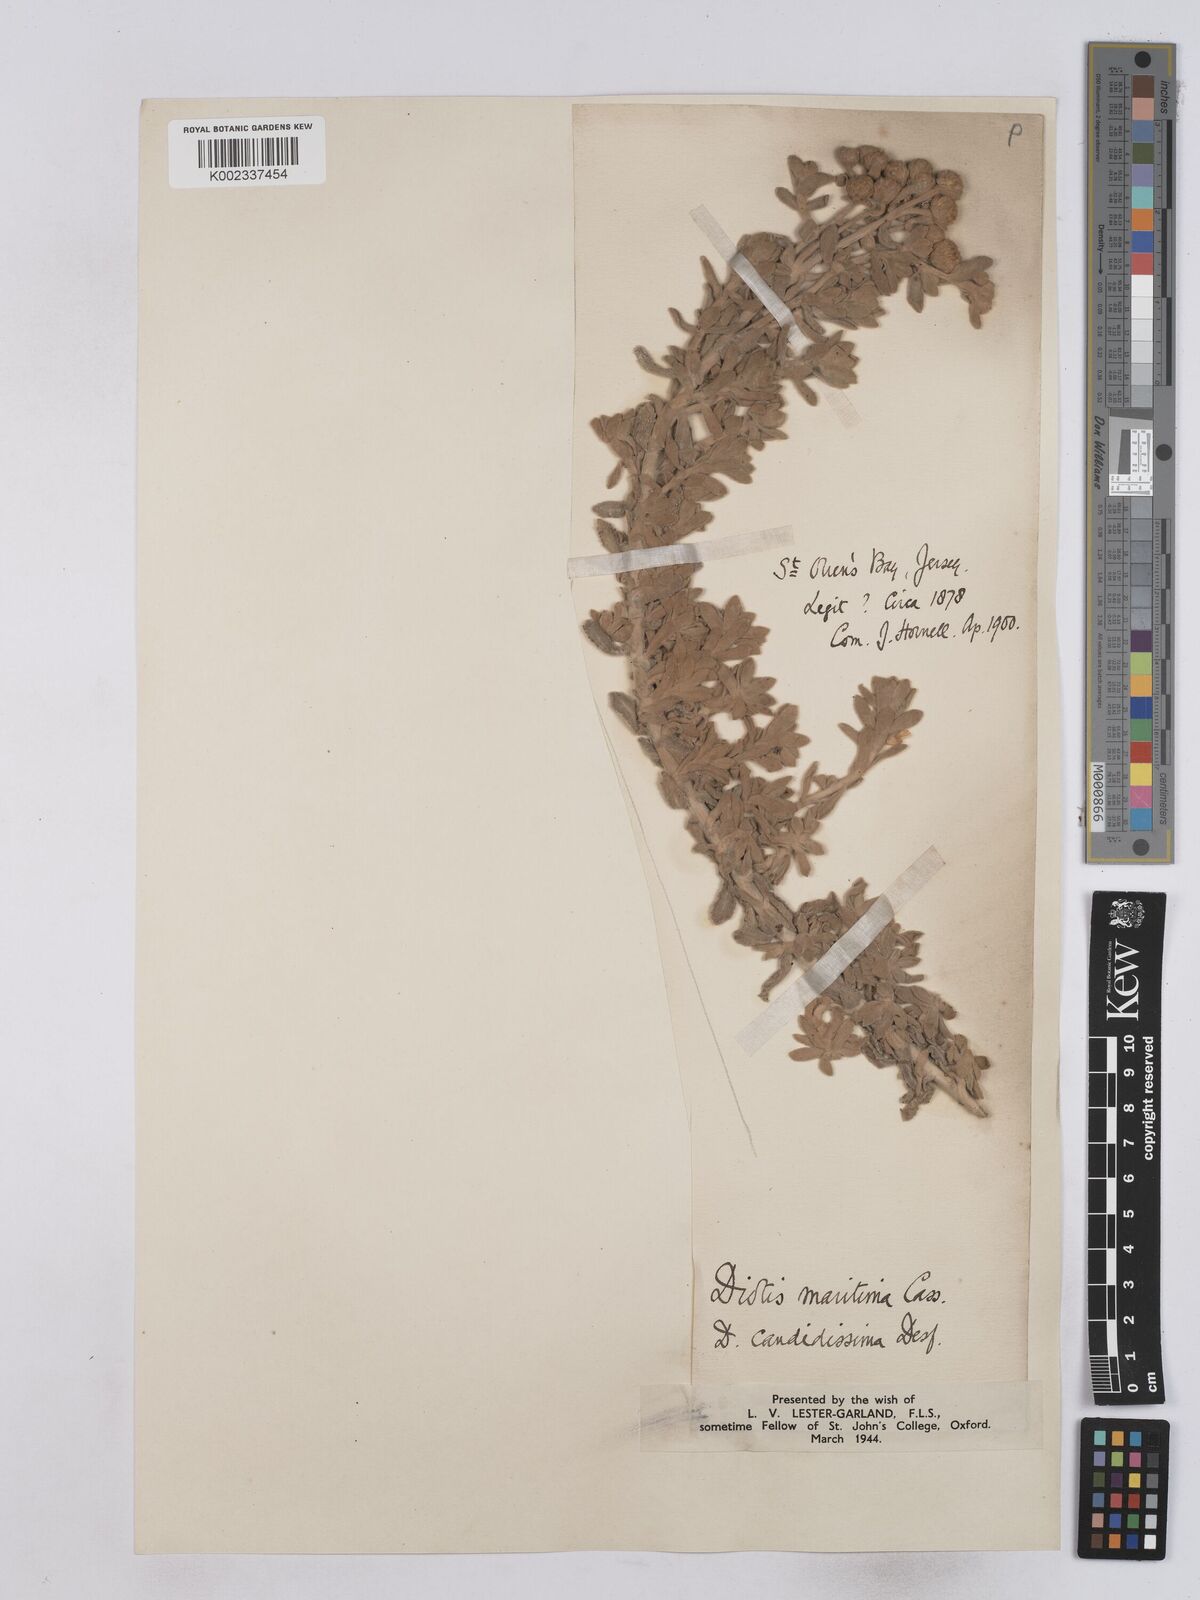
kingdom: Plantae
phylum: Tracheophyta
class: Magnoliopsida
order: Asterales
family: Asteraceae
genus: Achillea
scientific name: Achillea maritima
